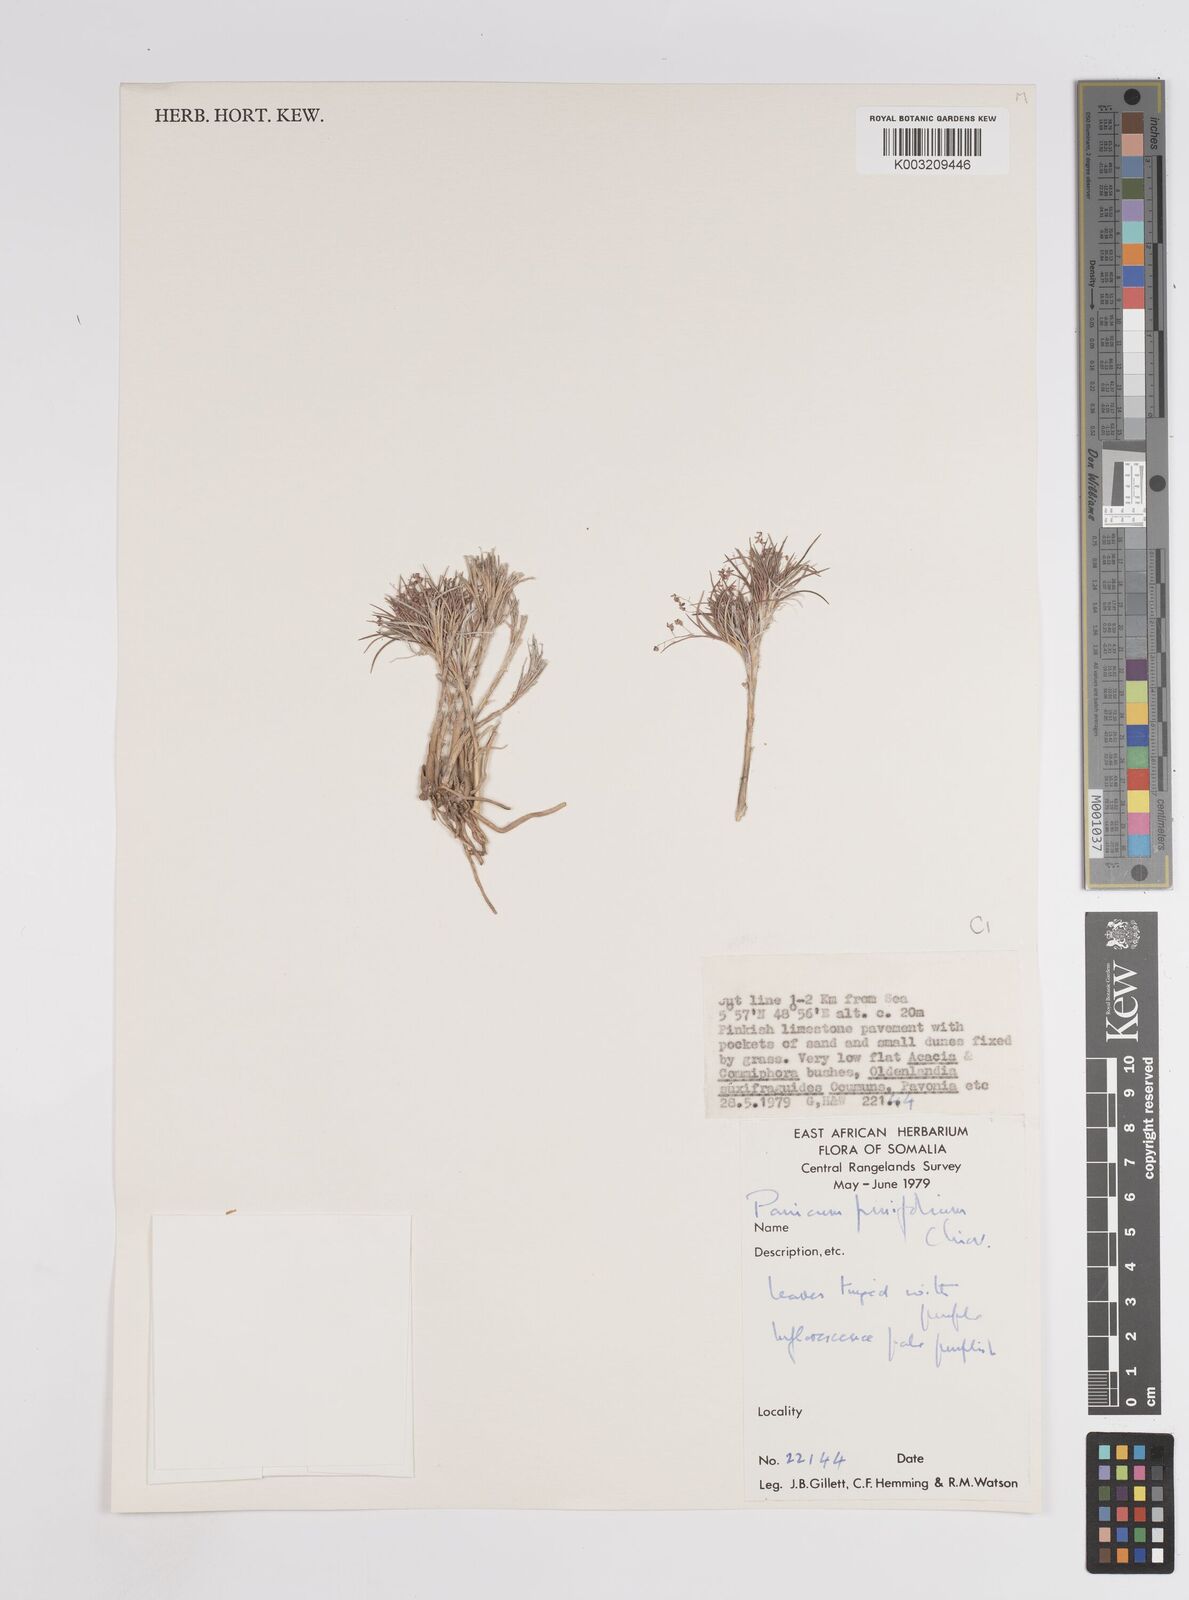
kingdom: Plantae
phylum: Tracheophyta
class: Liliopsida
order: Poales
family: Poaceae
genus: Panicum
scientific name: Panicum pinifolium
